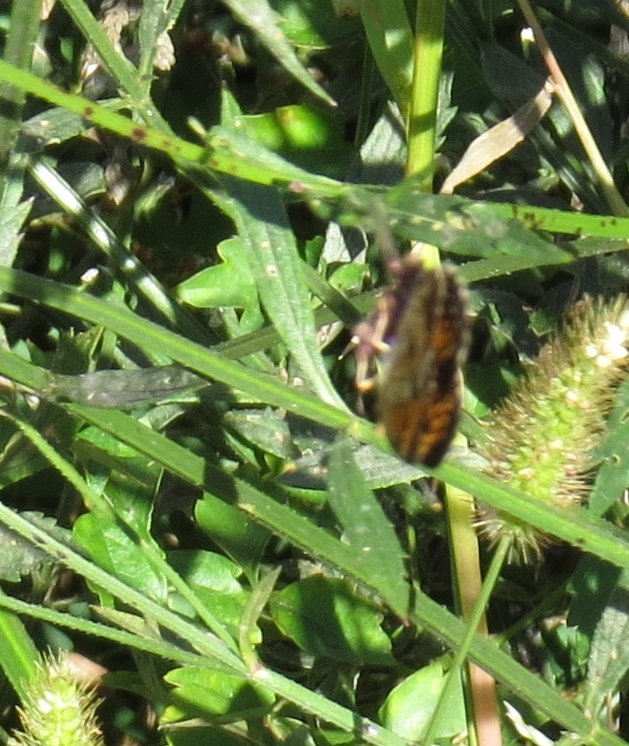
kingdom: Animalia
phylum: Arthropoda
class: Insecta
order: Lepidoptera
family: Nymphalidae
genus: Phyciodes
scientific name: Phyciodes tharos
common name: Pearl Crescent
